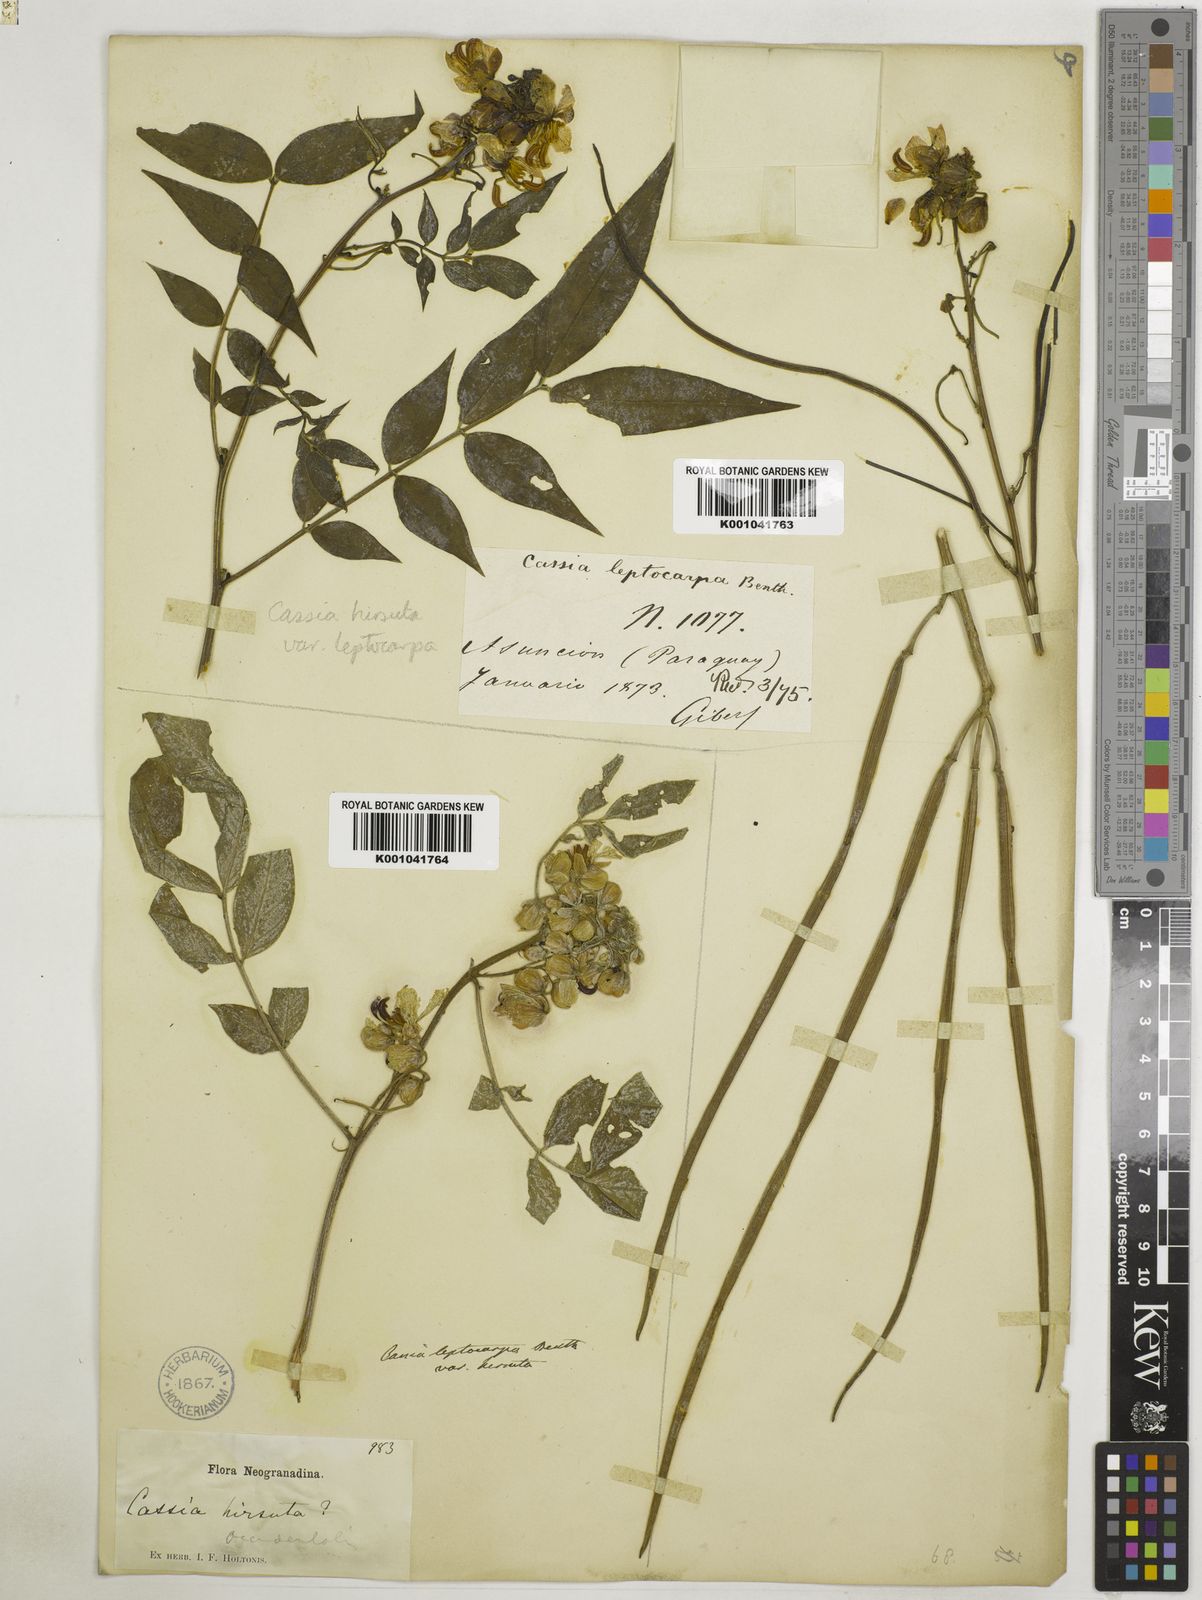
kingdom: Plantae
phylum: Tracheophyta
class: Magnoliopsida
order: Fabales
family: Fabaceae
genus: Senna
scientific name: Senna hirsuta
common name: Woolly senna
